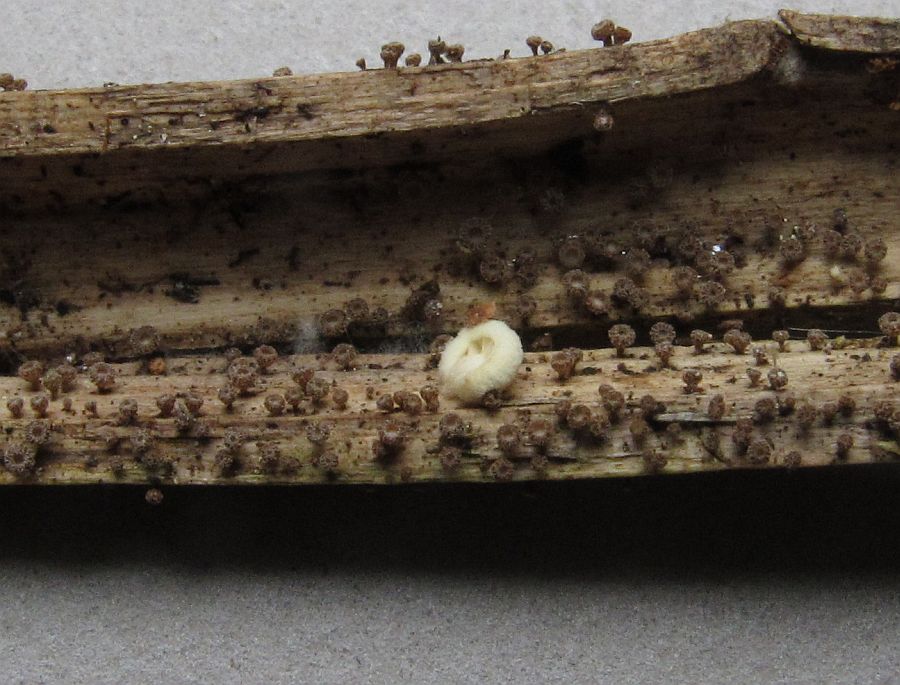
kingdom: Fungi
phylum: Ascomycota
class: Leotiomycetes
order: Helotiales
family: Lachnaceae
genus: Brunnipila
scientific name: Brunnipila clandestina
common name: hindbær-frynseskive
